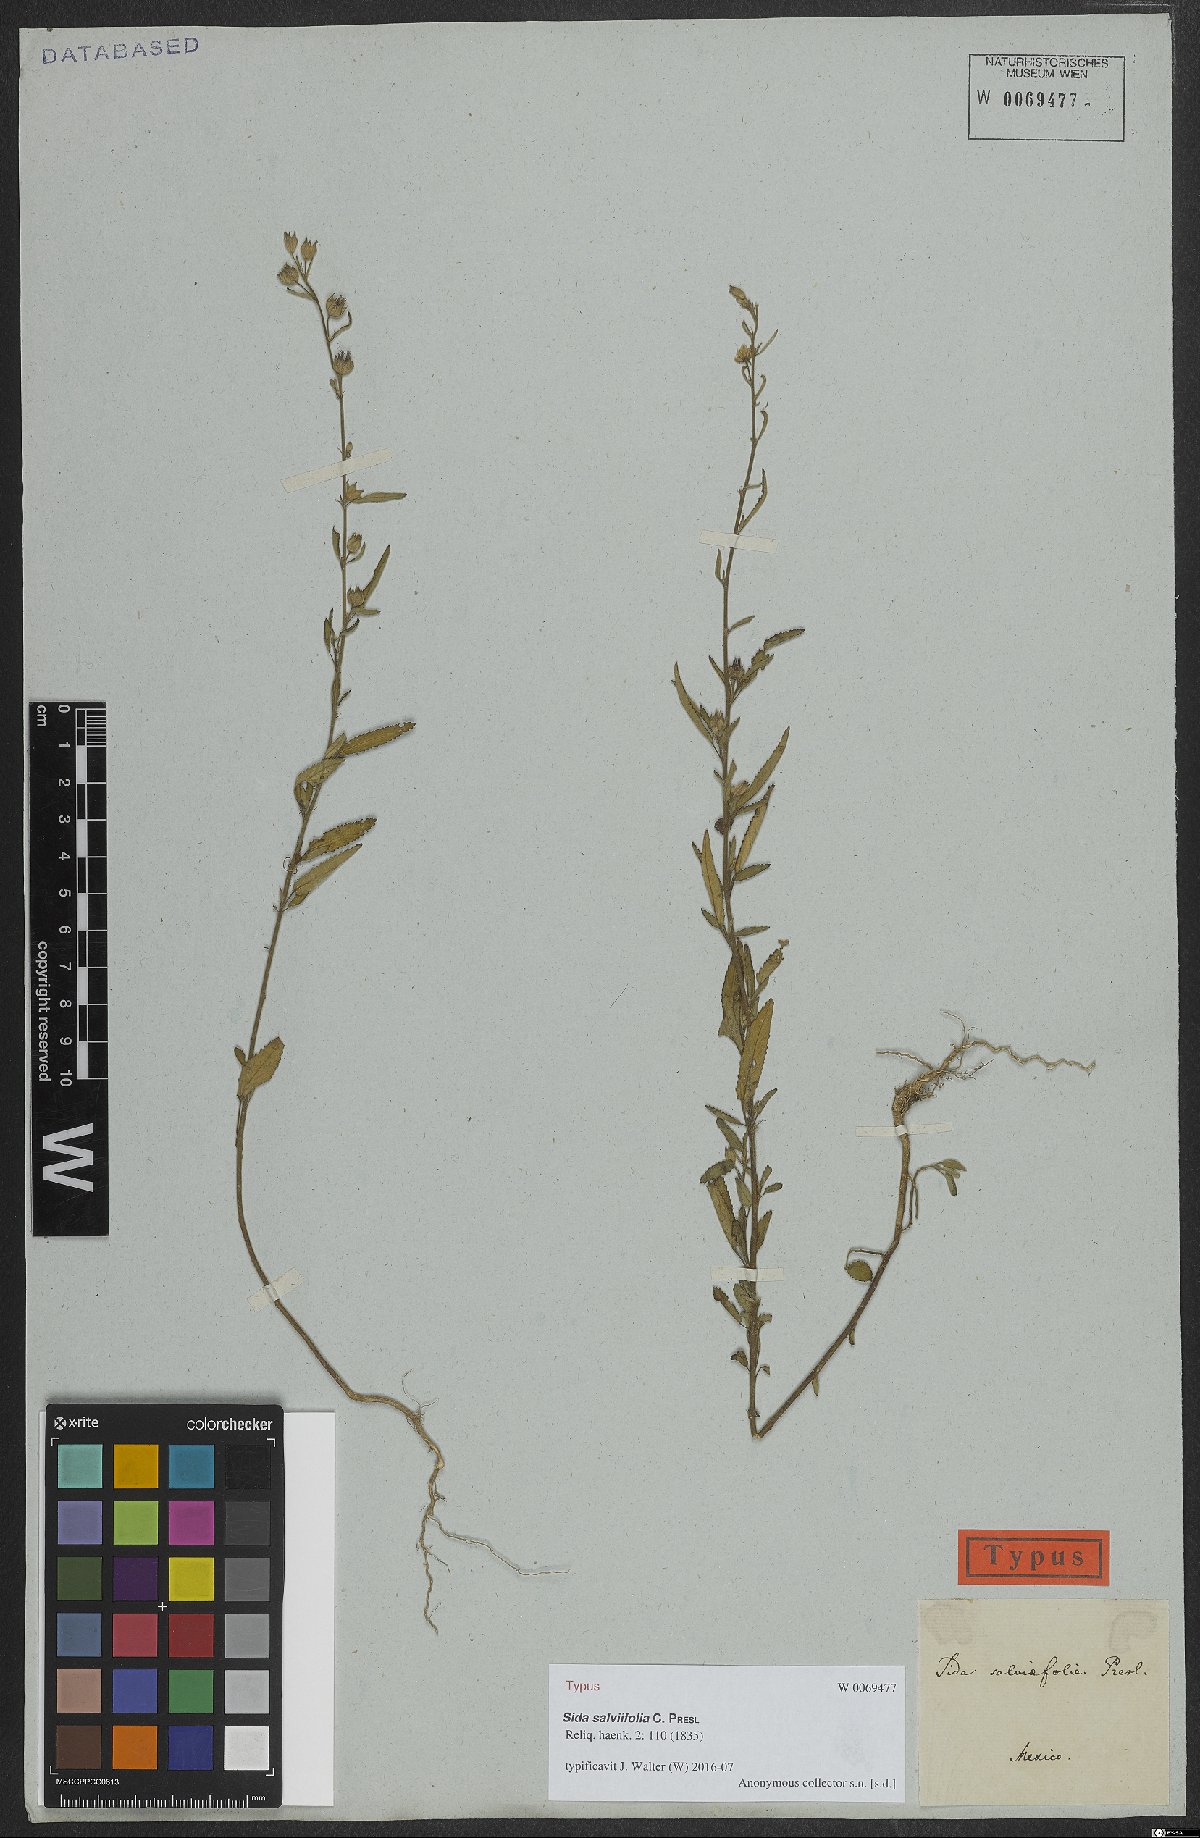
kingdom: Plantae
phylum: Tracheophyta
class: Magnoliopsida
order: Malvales
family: Malvaceae
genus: Sida
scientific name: Sida salviifolia
